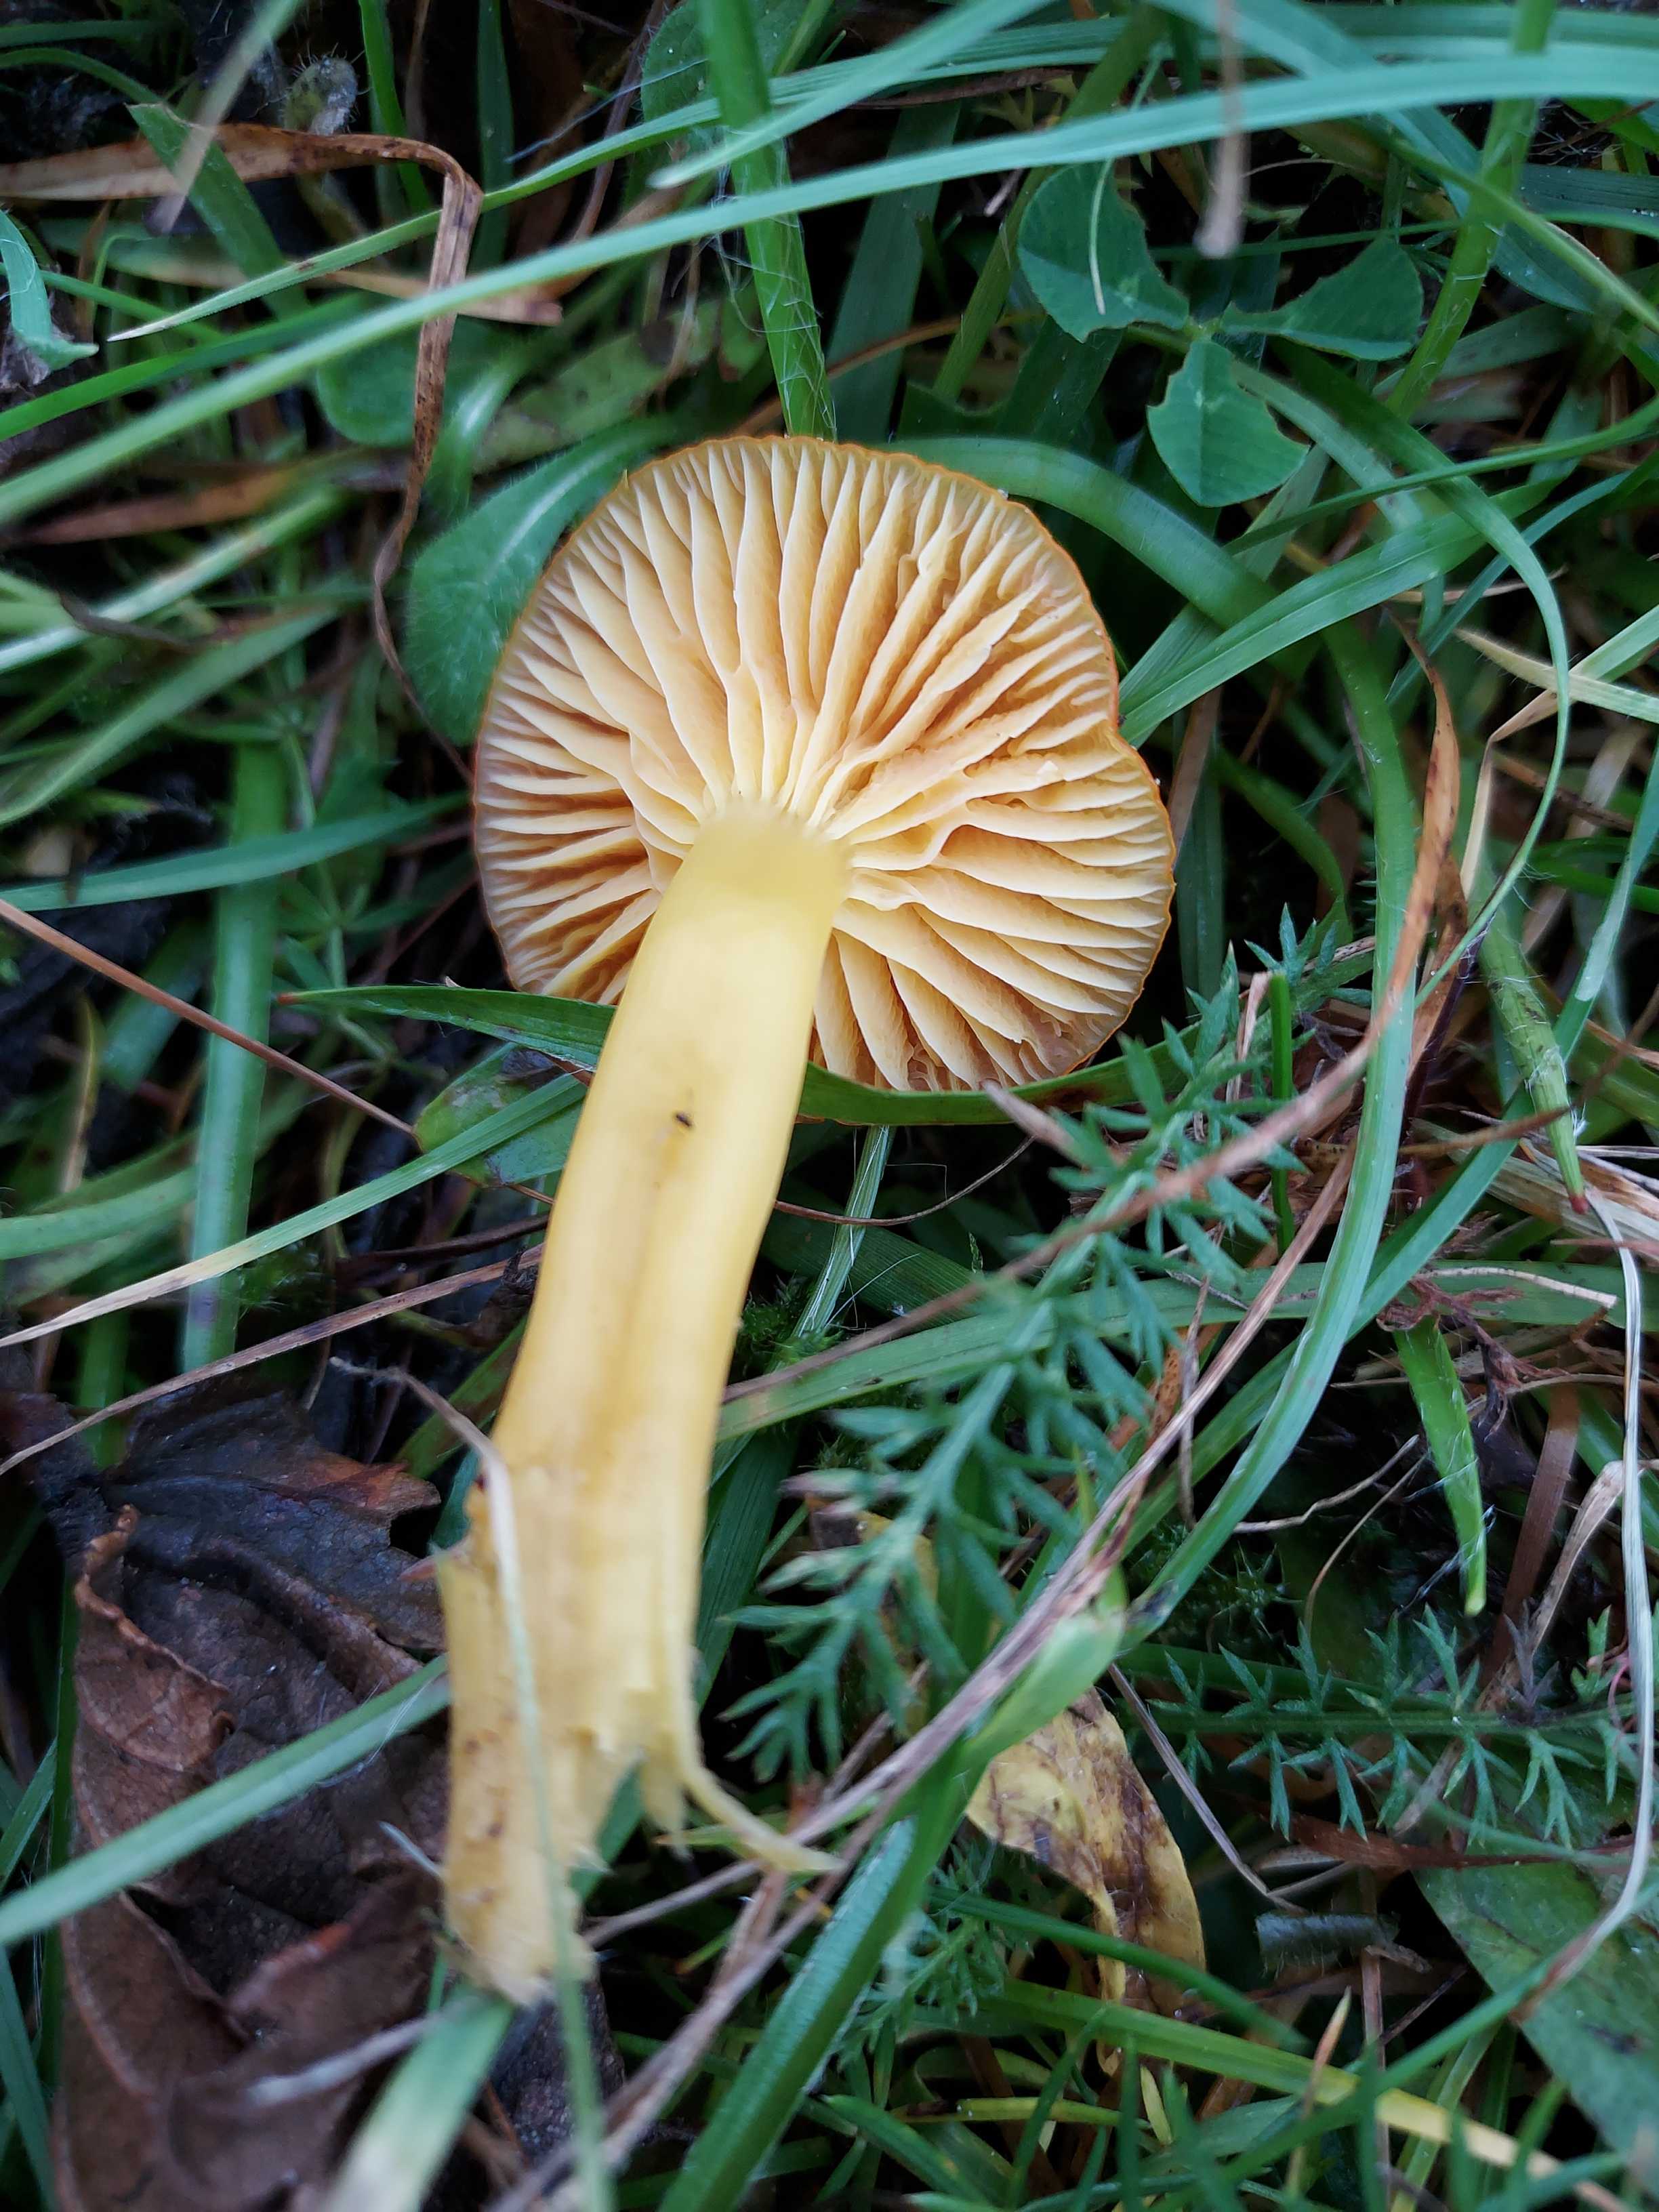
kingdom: Fungi
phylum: Basidiomycota
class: Agaricomycetes
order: Agaricales
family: Hygrophoraceae
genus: Hygrocybe
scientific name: Hygrocybe ceracea
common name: voksgul vokshat
